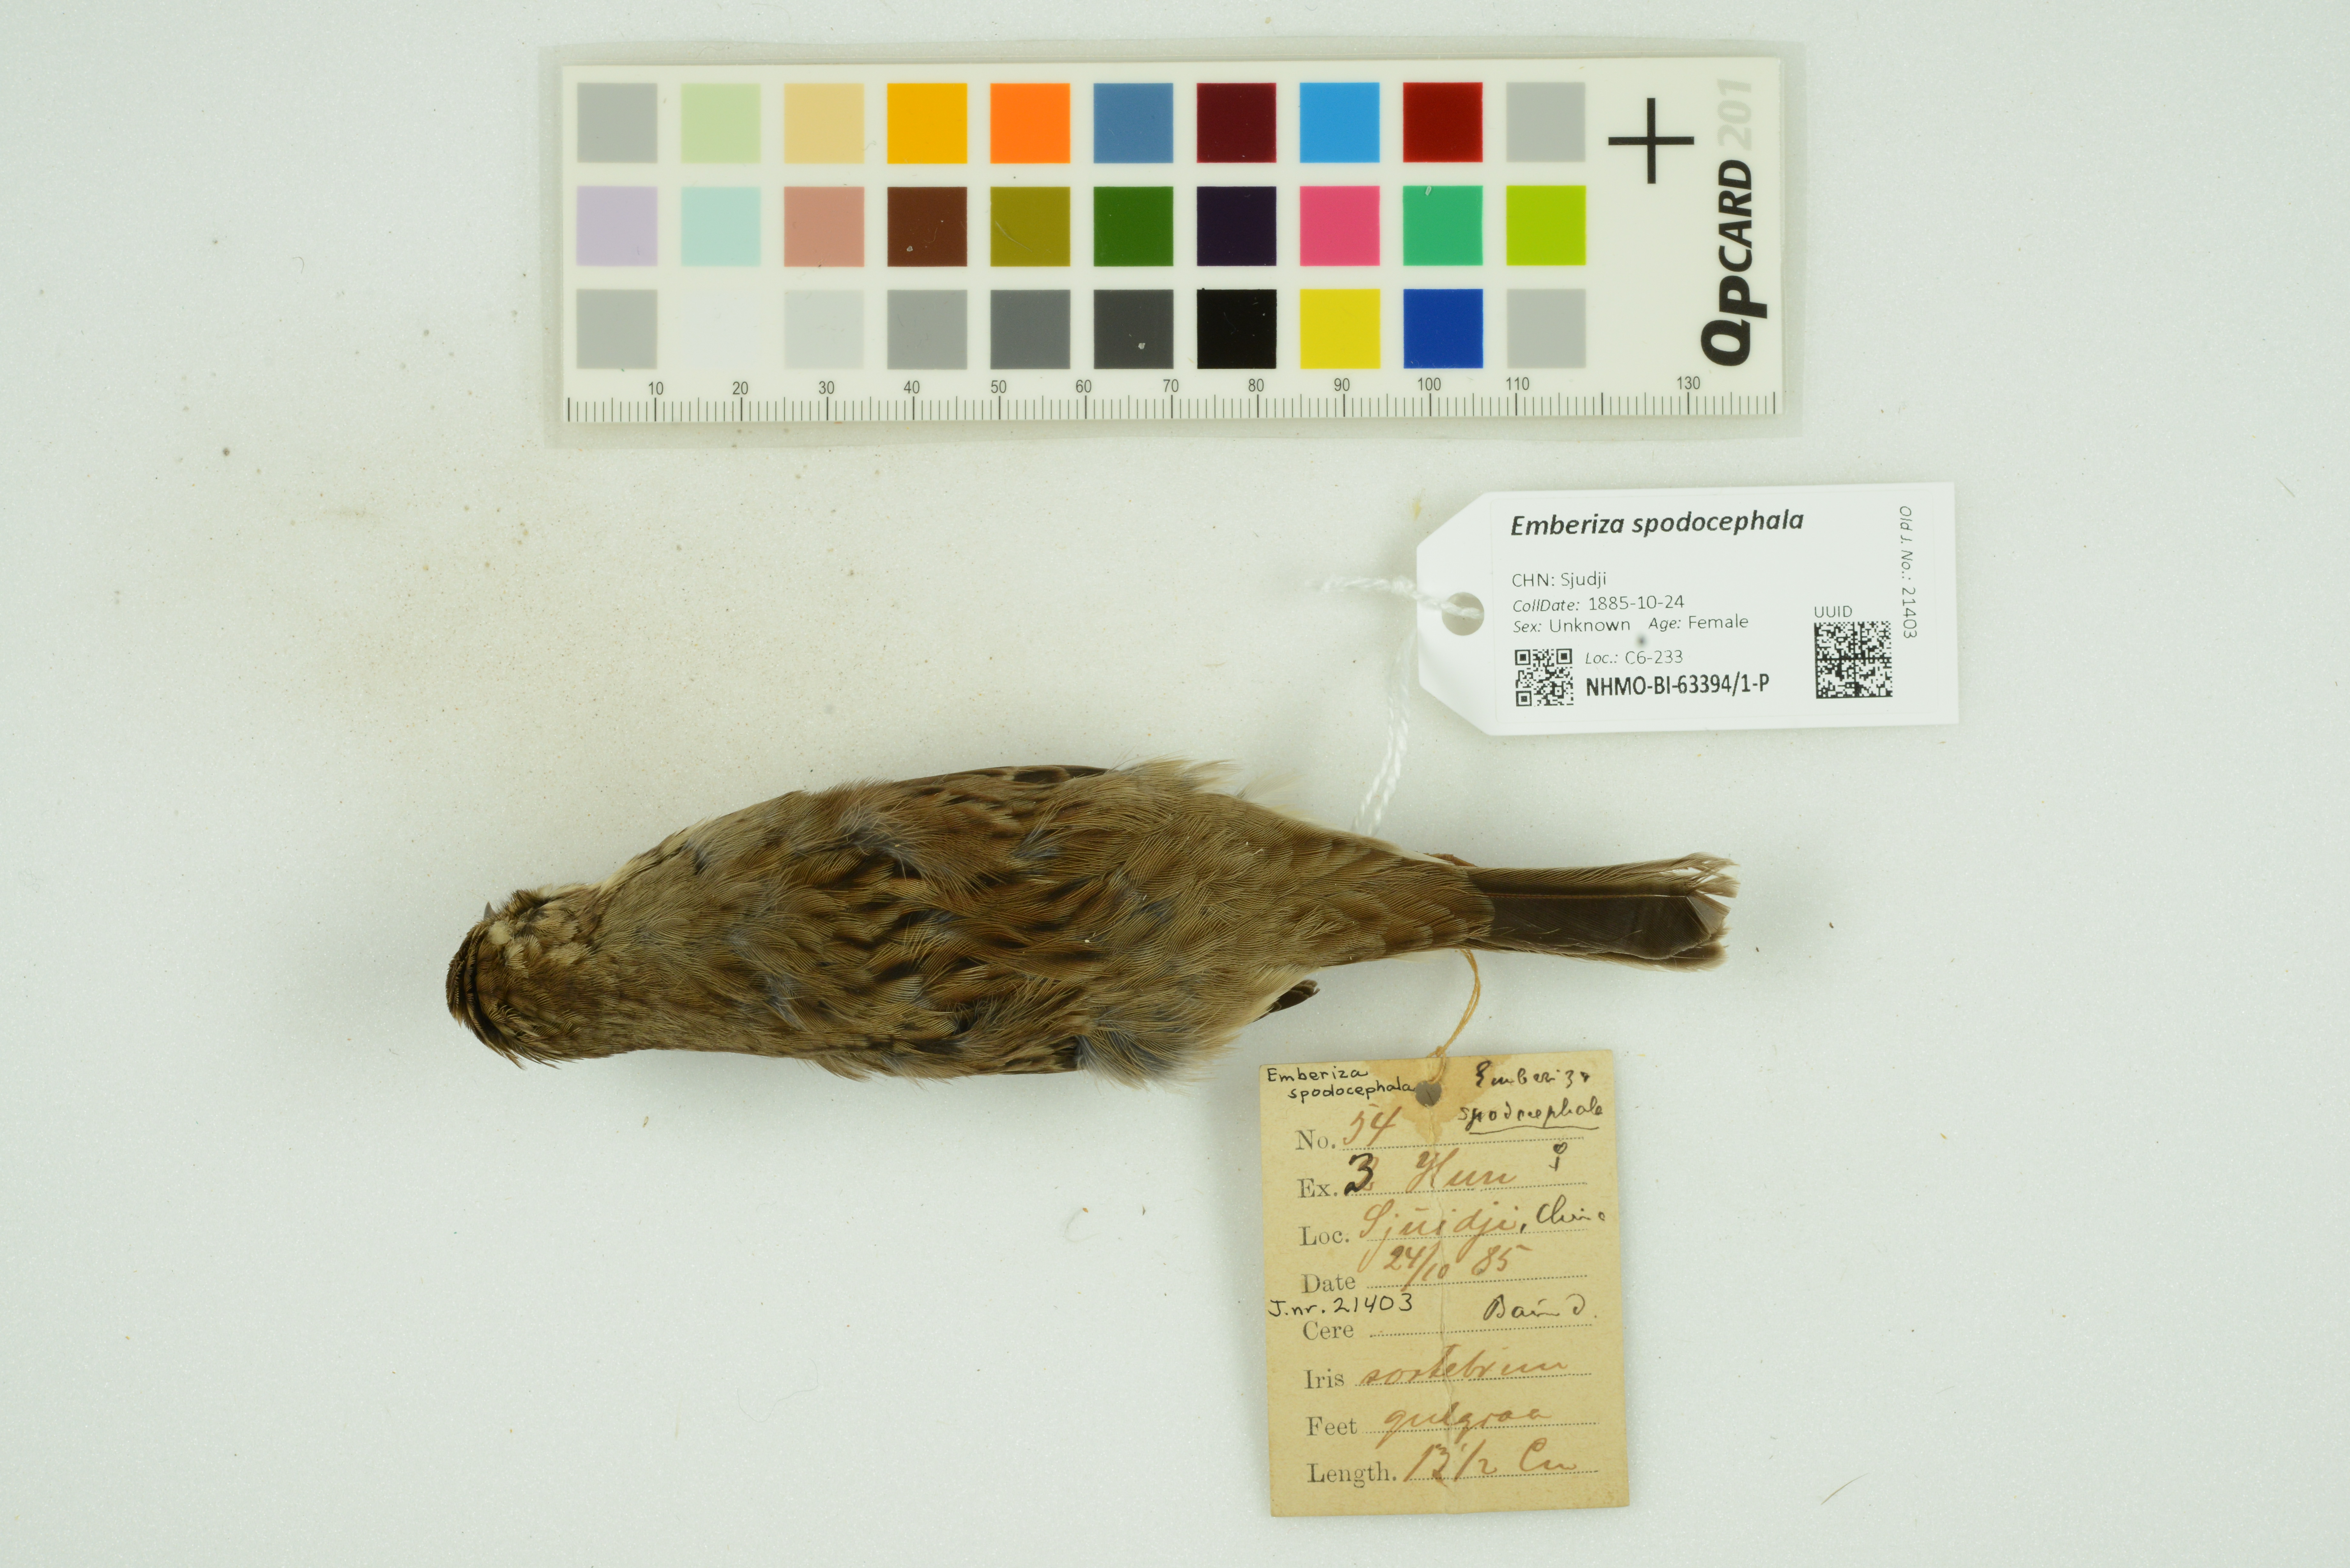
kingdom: Animalia
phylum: Chordata
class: Aves
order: Passeriformes
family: Emberizidae
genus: Emberiza
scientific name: Emberiza spodocephala
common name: Black-faced bunting
